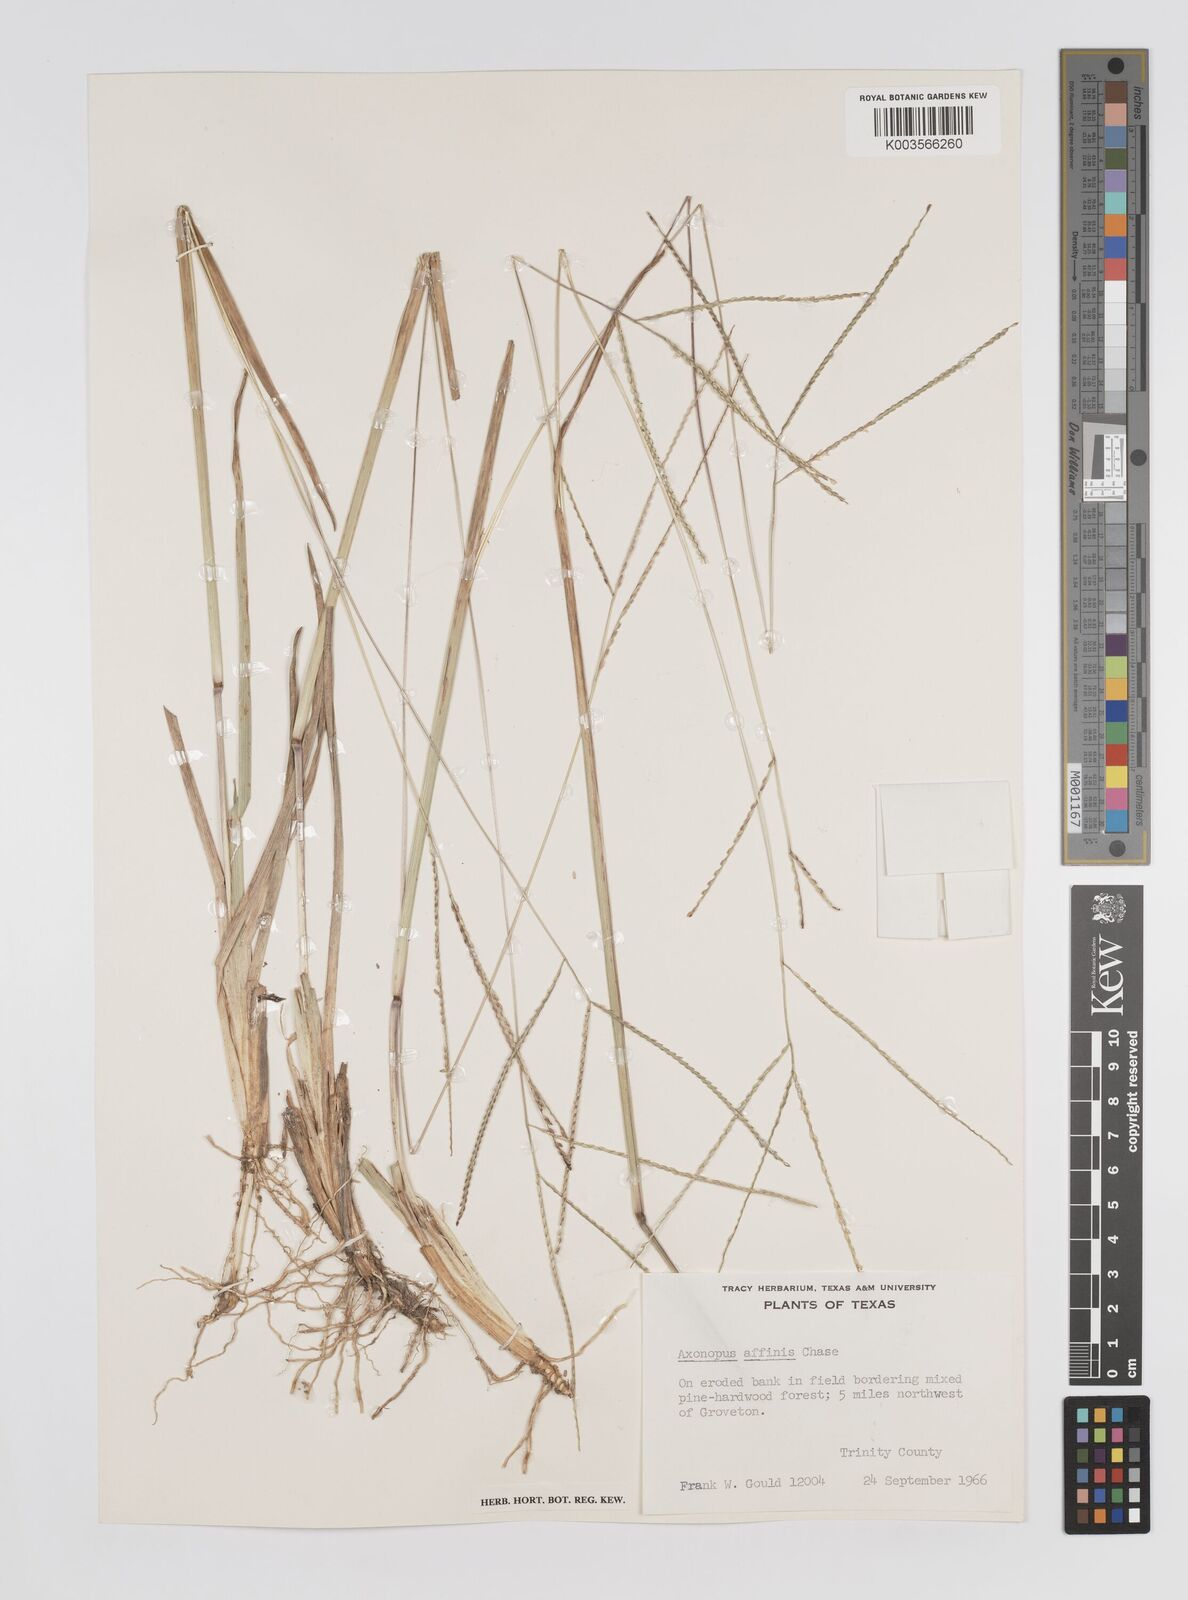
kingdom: Plantae
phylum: Tracheophyta
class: Liliopsida
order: Poales
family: Poaceae
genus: Axonopus
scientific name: Axonopus fissifolius
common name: Common carpetgrass
